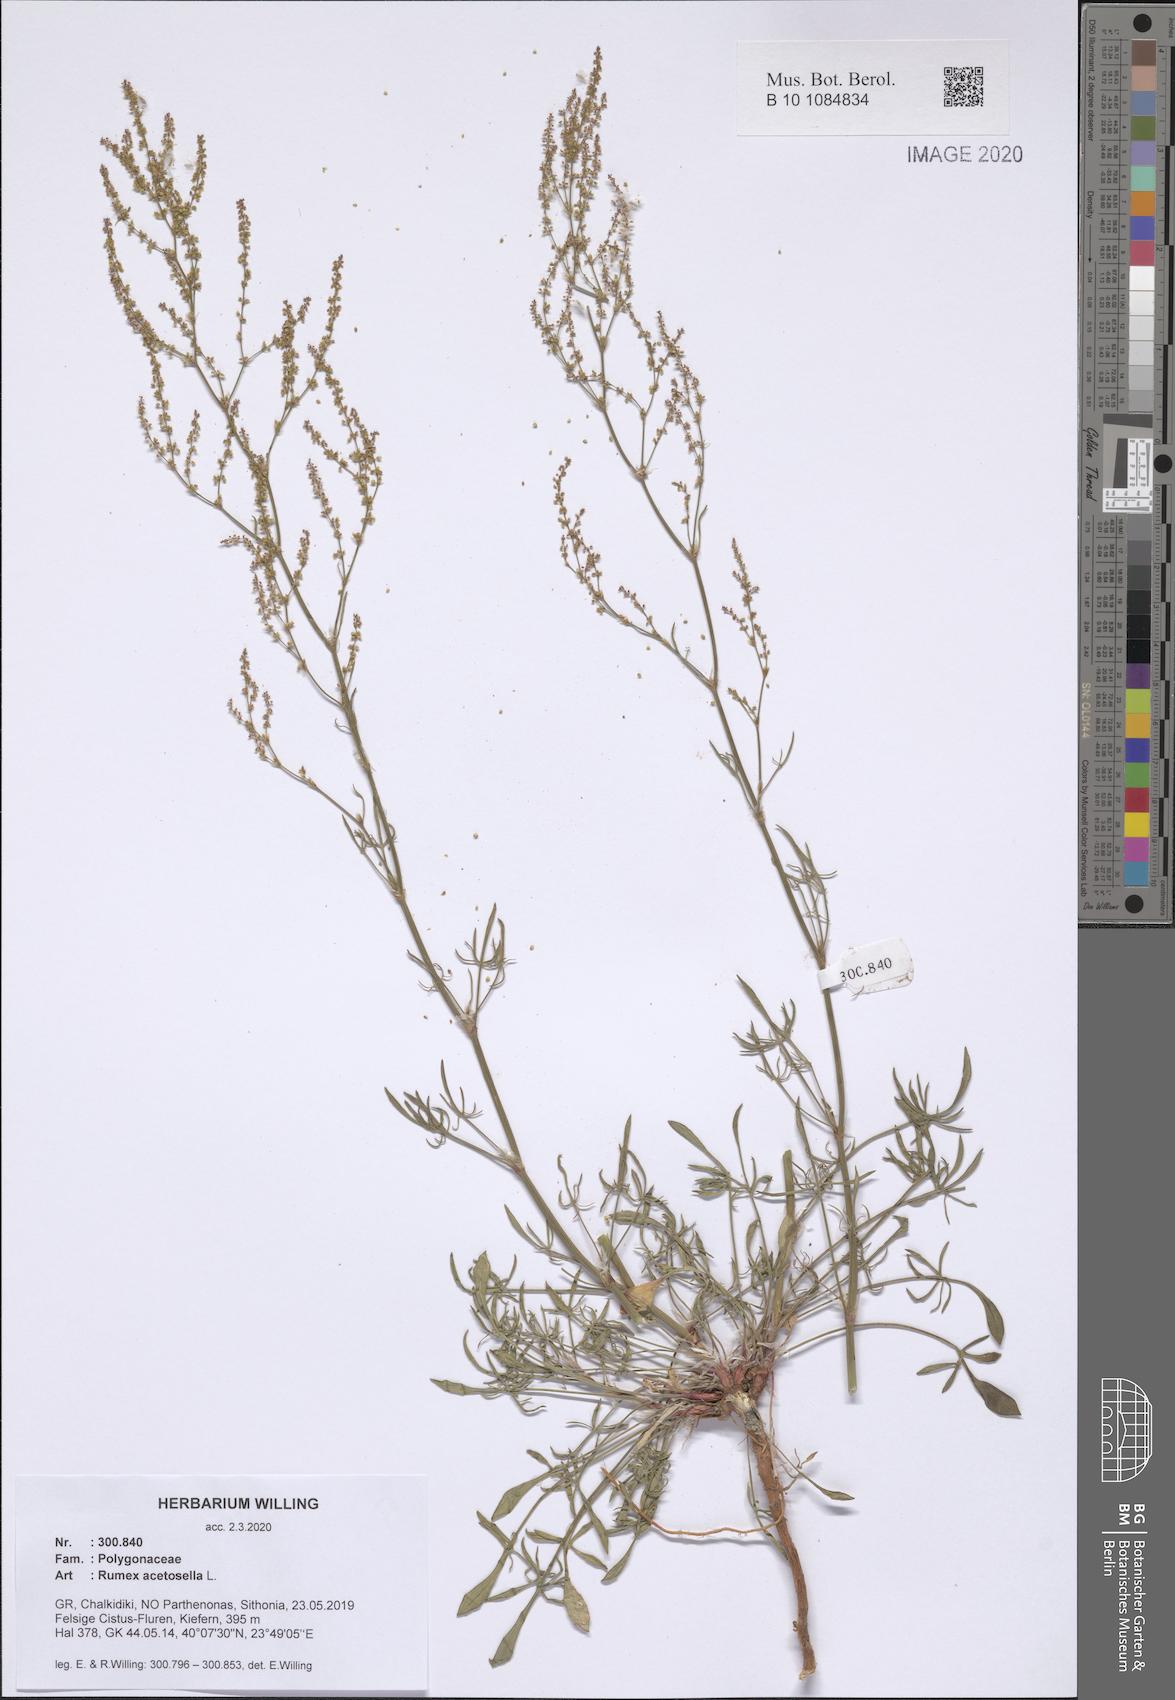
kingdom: Plantae
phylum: Tracheophyta
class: Magnoliopsida
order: Caryophyllales
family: Polygonaceae
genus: Rumex
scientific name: Rumex acetosella
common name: Common sheep sorrel
